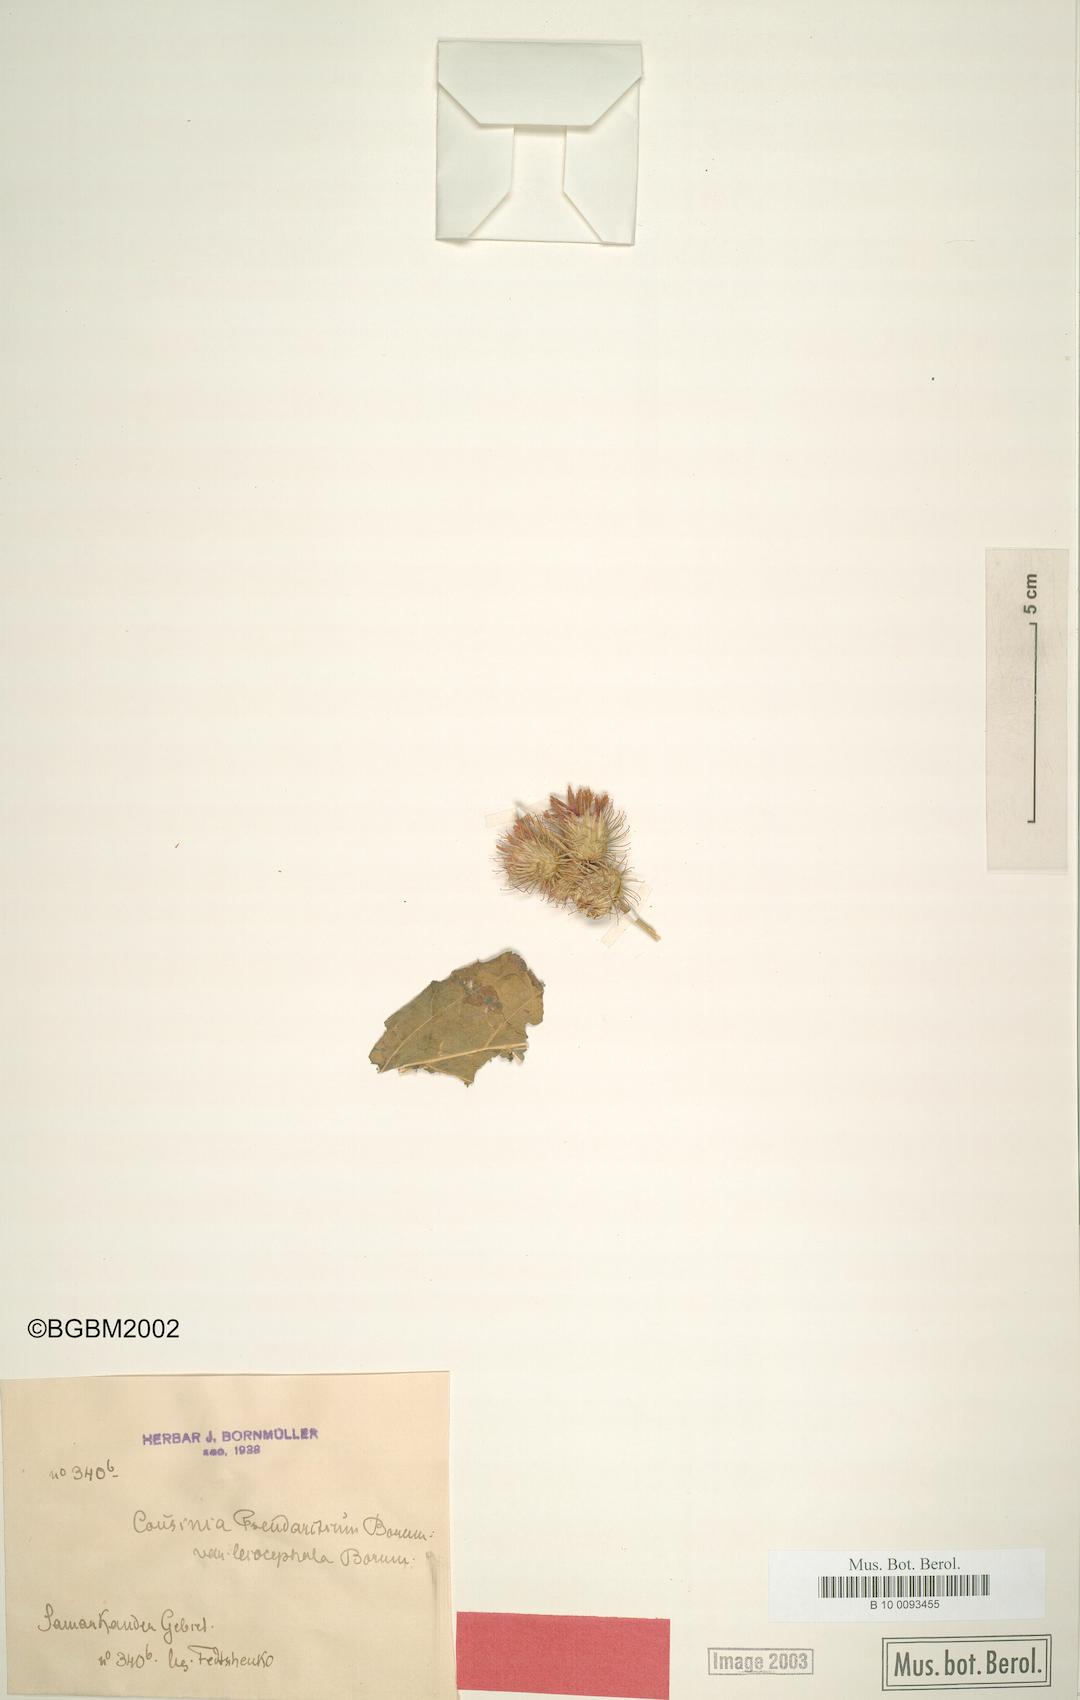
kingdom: Plantae
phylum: Tracheophyta
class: Magnoliopsida
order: Asterales
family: Asteraceae
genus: Arctium
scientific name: Arctium pseudarctium
